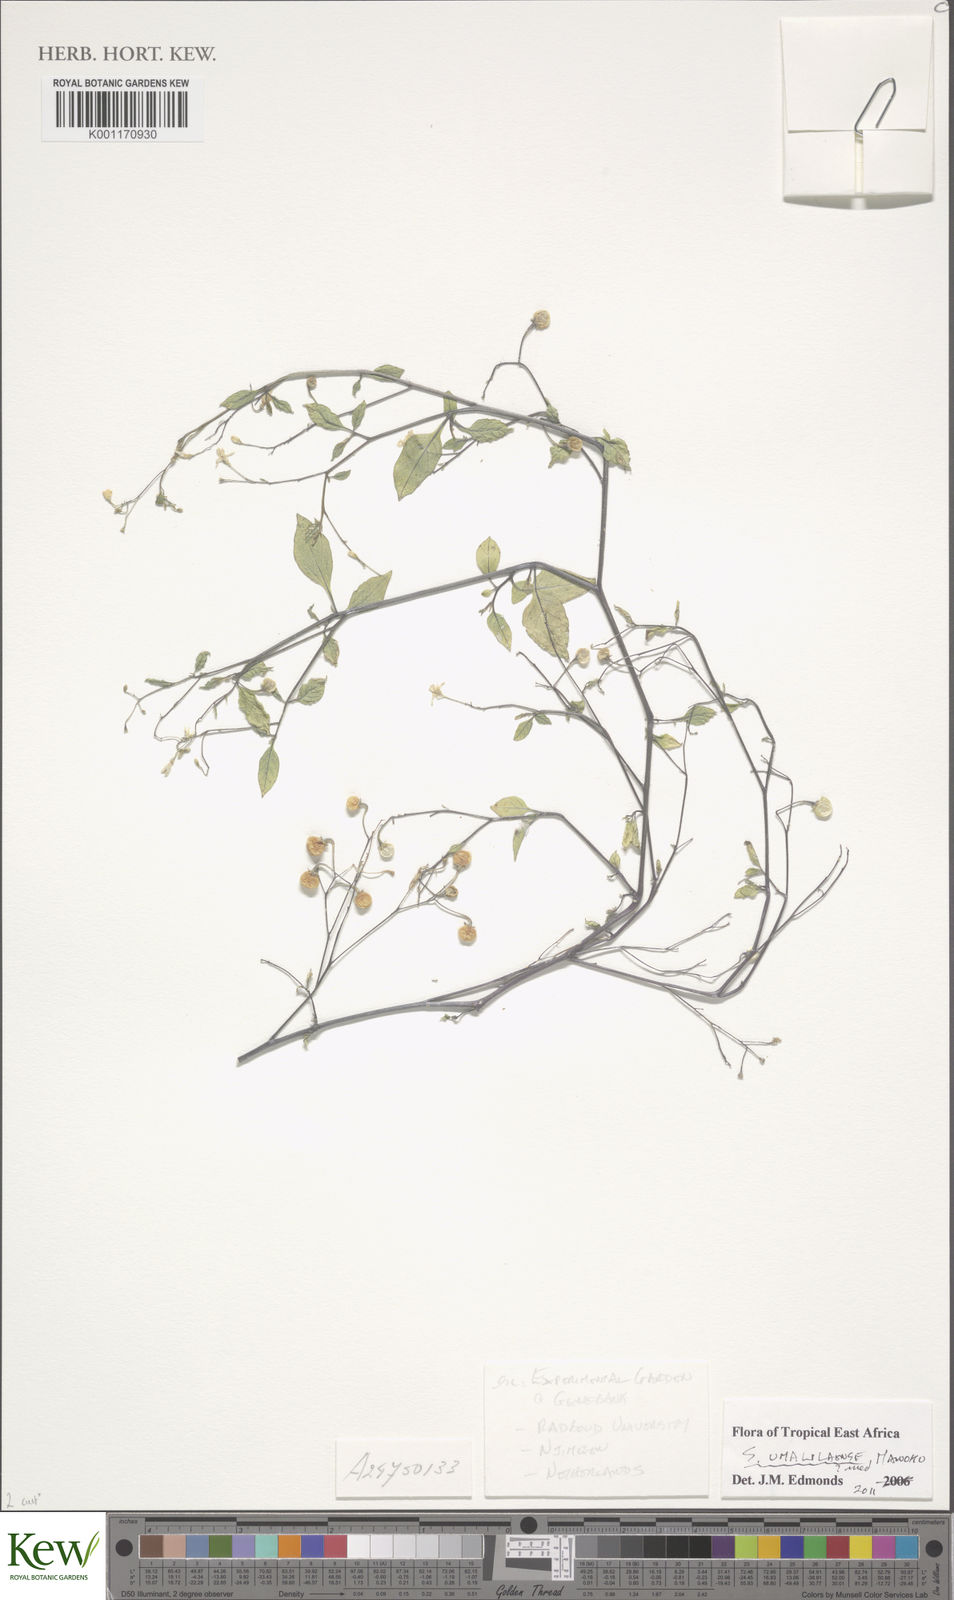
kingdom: Plantae
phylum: Tracheophyta
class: Magnoliopsida
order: Solanales
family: Solanaceae
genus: Solanum
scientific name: Solanum umalilaense
